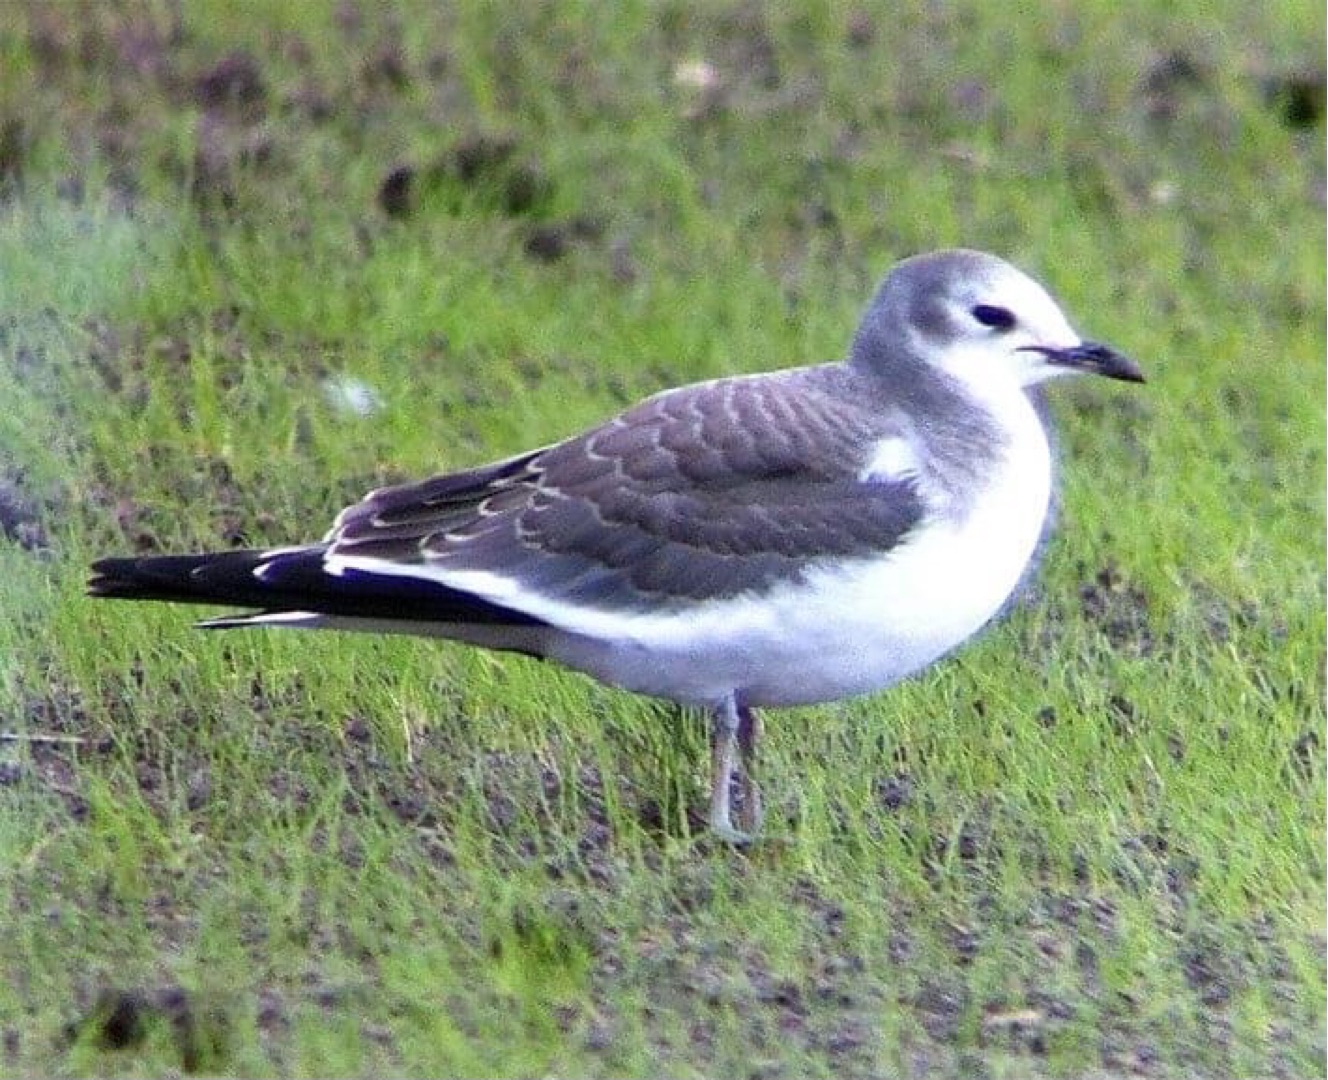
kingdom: Animalia
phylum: Chordata
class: Aves
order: Charadriiformes
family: Laridae
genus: Xema
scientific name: Xema sabini
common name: Sabinemåge
